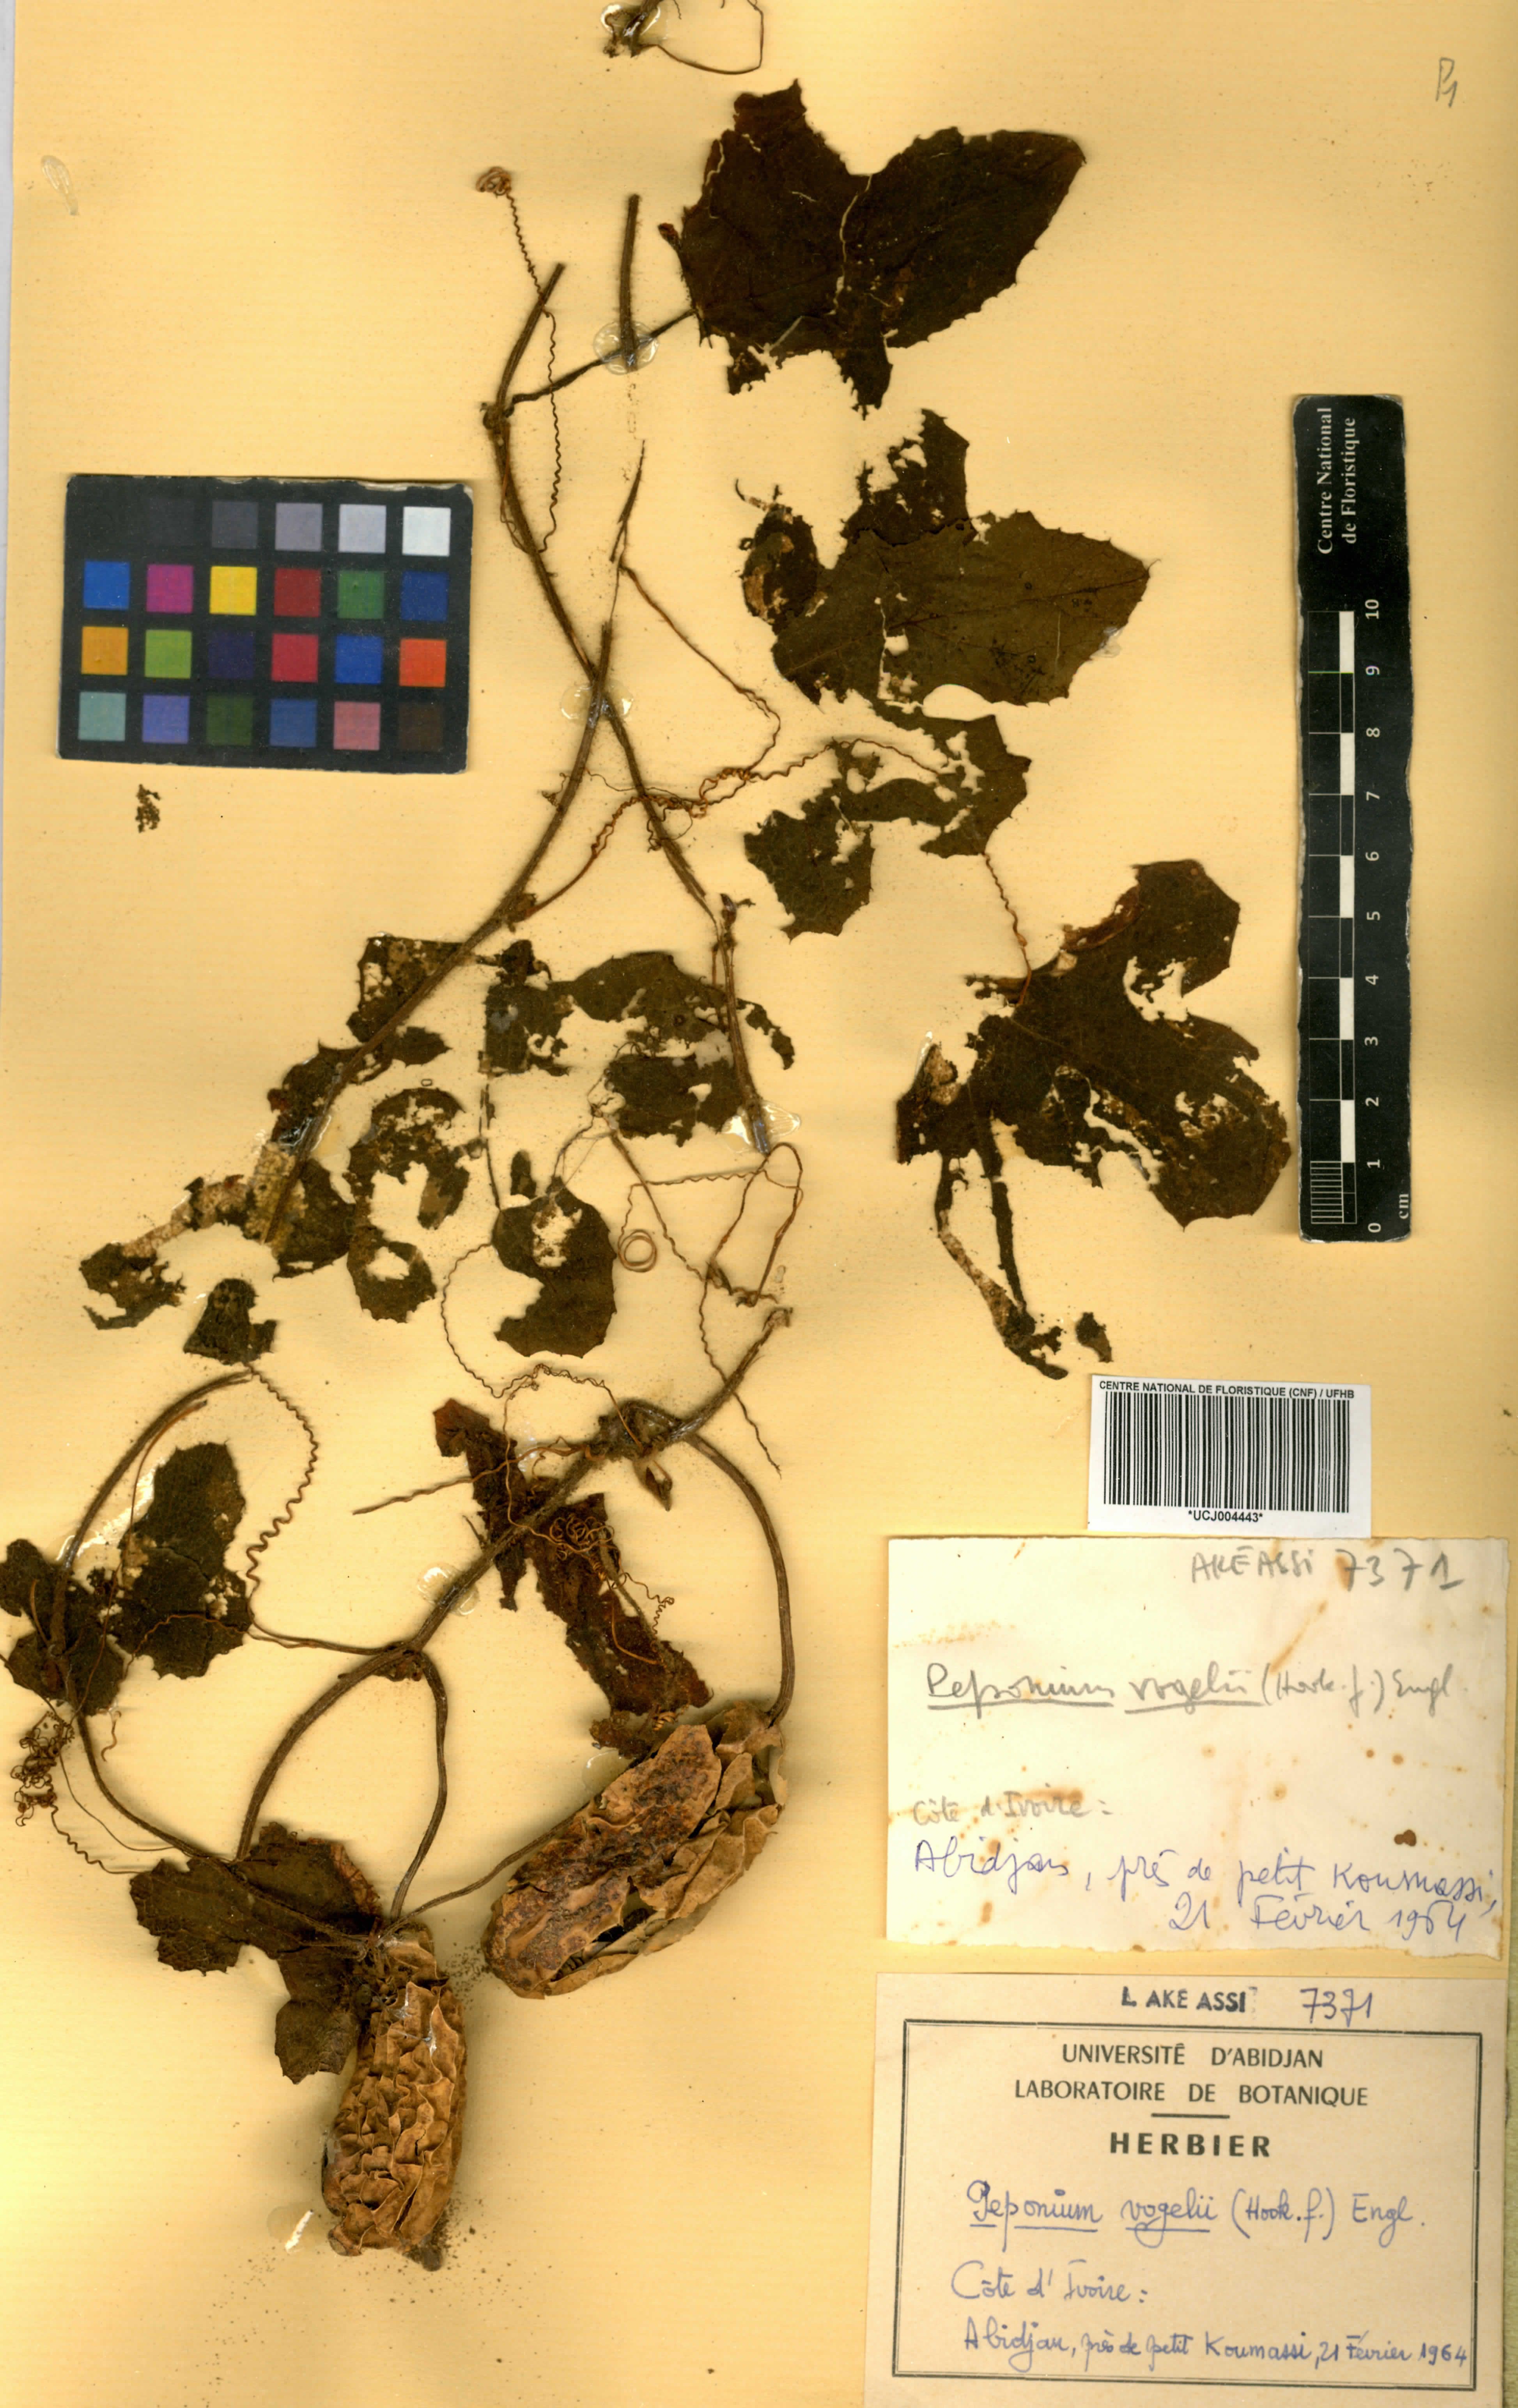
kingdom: Plantae
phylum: Tracheophyta
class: Magnoliopsida
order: Cucurbitales
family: Cucurbitaceae
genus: Peponium
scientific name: Peponium vogelii
